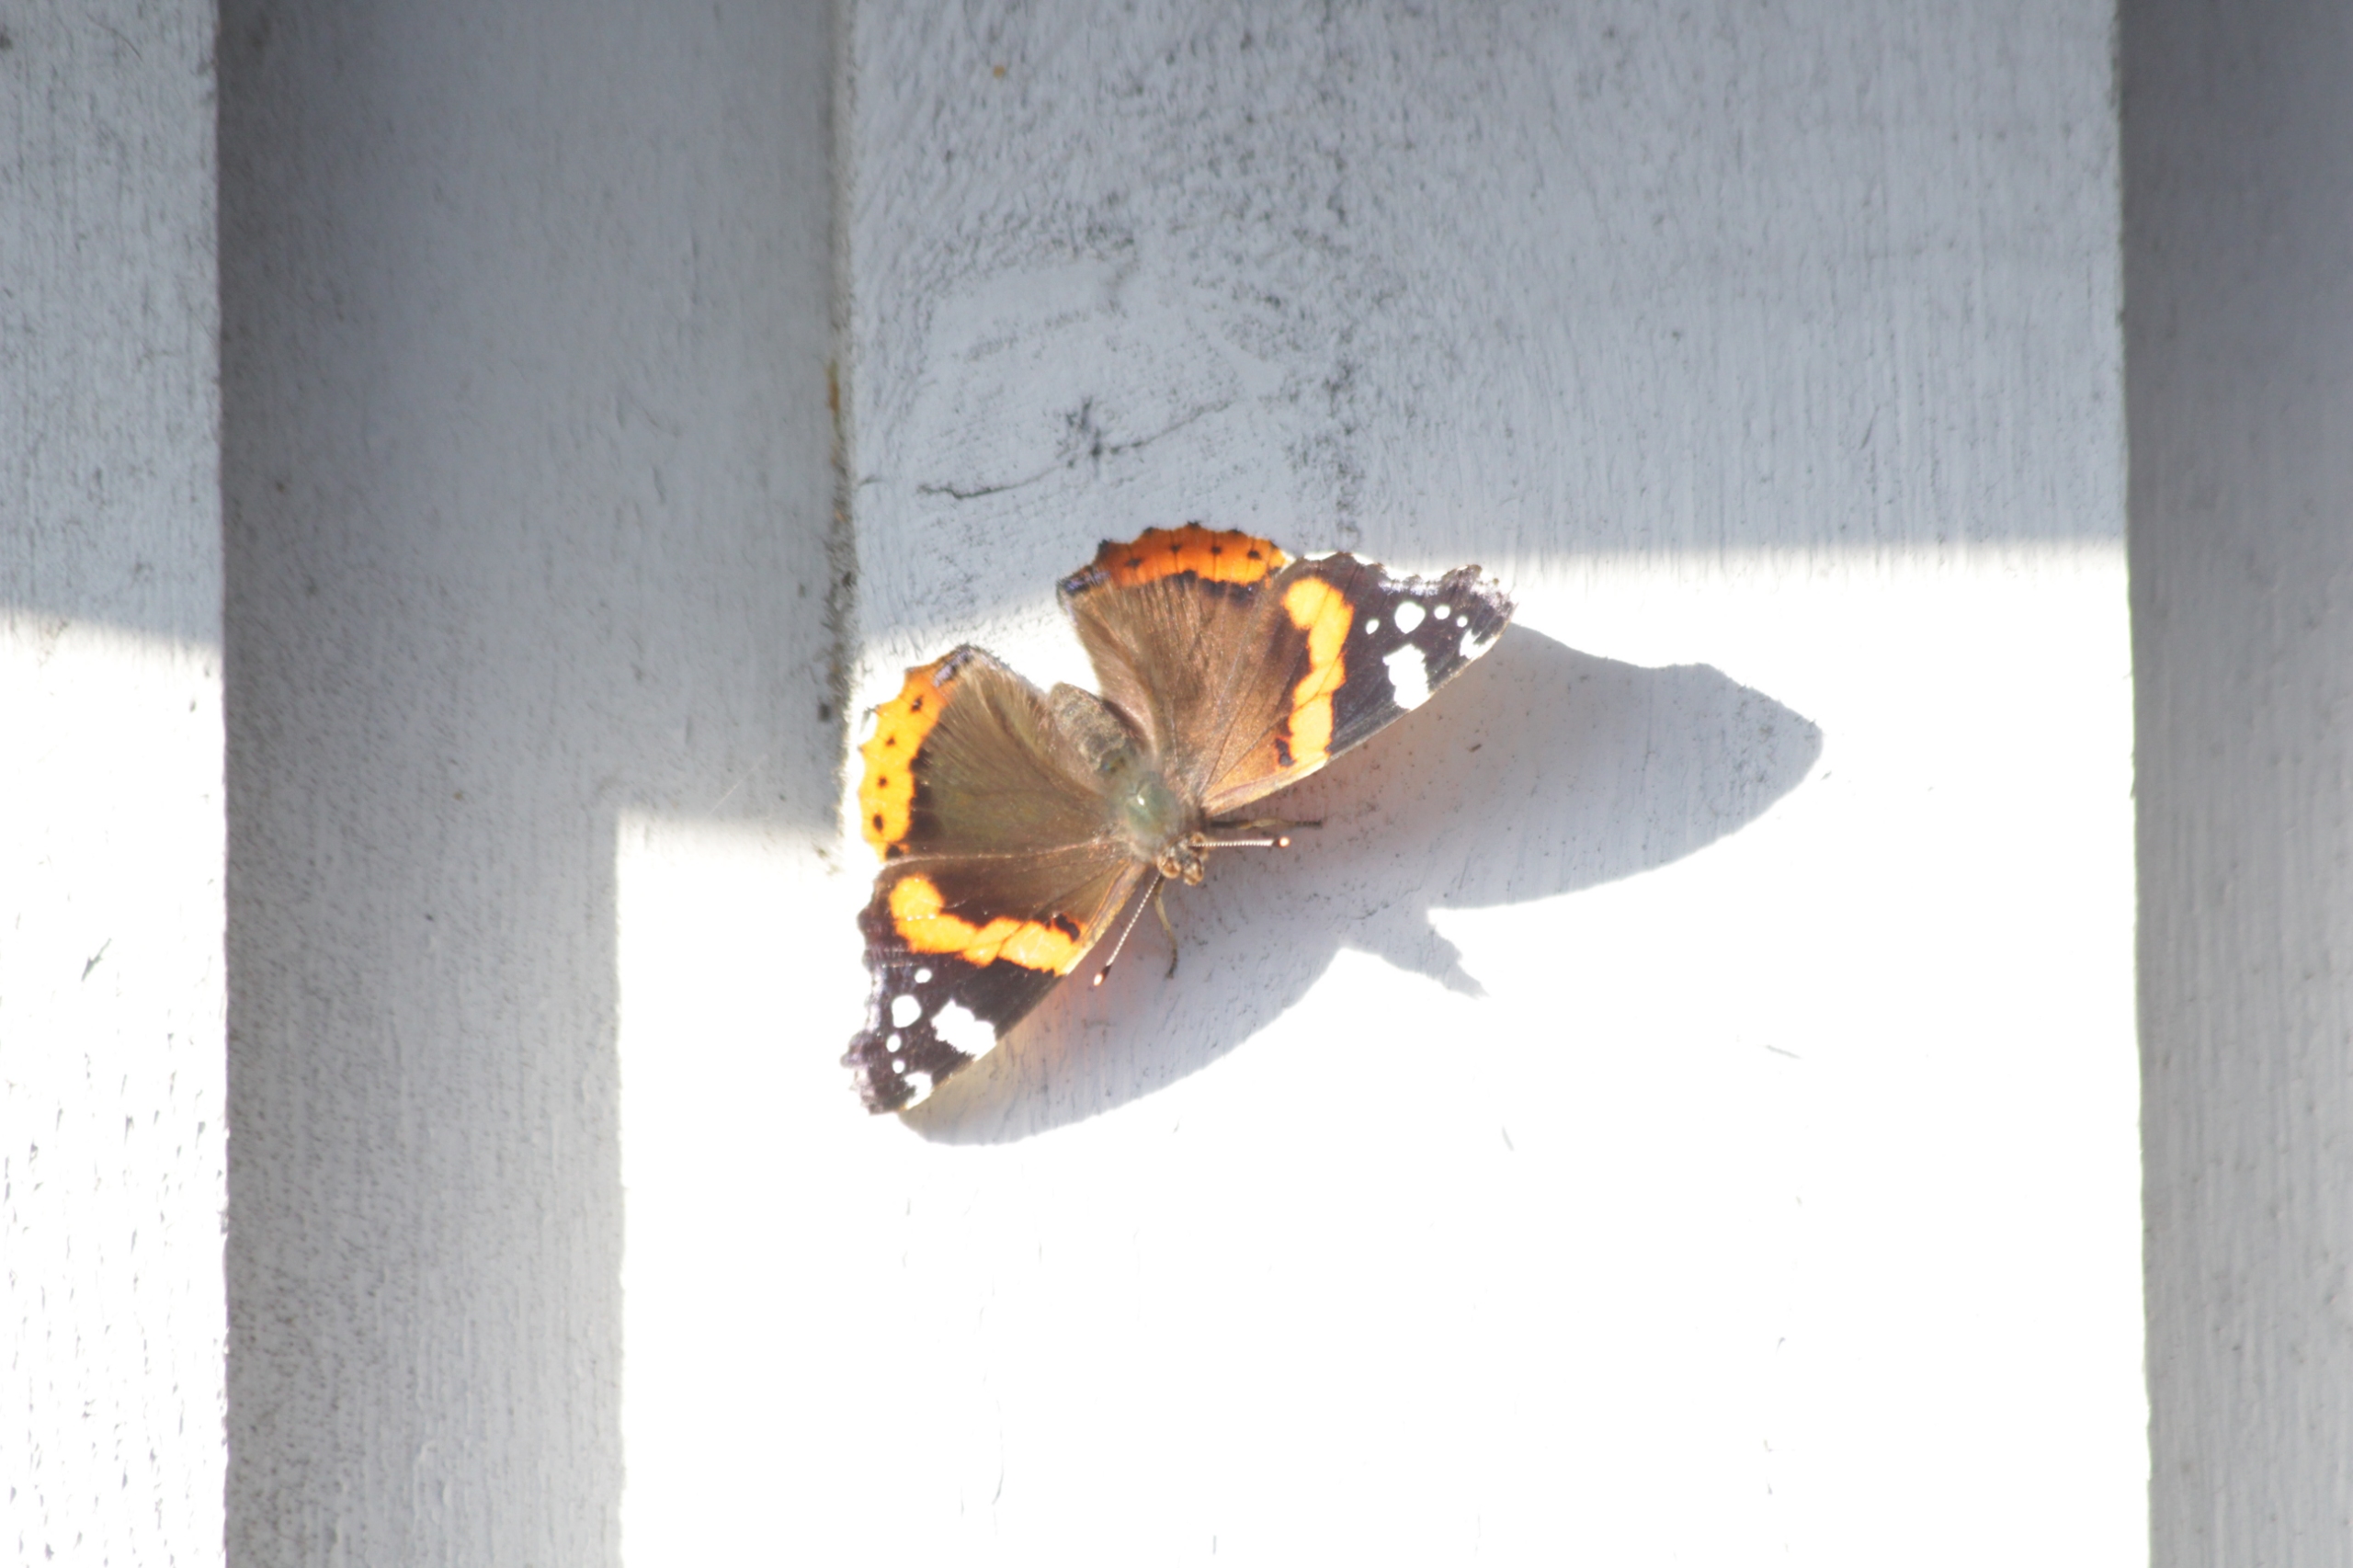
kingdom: Animalia
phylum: Arthropoda
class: Insecta
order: Lepidoptera
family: Nymphalidae
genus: Vanessa
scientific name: Vanessa atalanta
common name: Admiral
